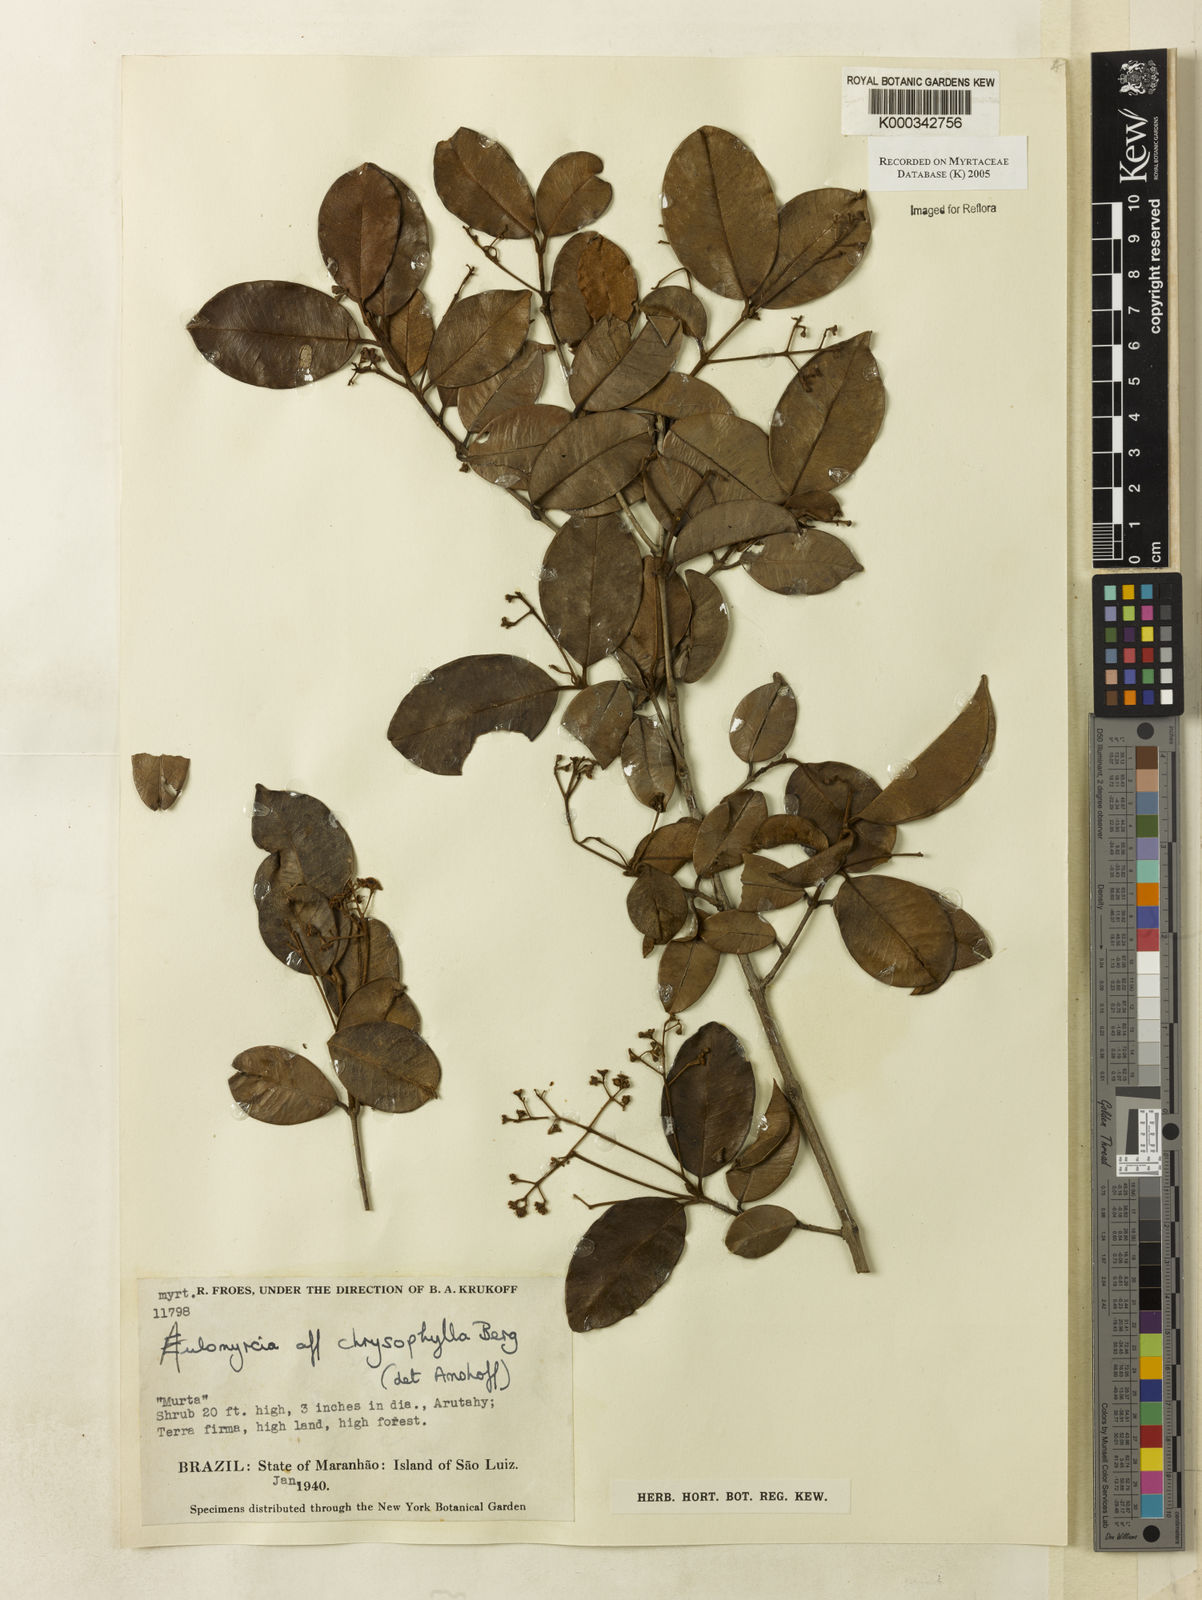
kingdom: Plantae
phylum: Tracheophyta
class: Magnoliopsida
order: Myrtales
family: Myrtaceae
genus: Myrcia
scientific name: Myrcia cuprea
